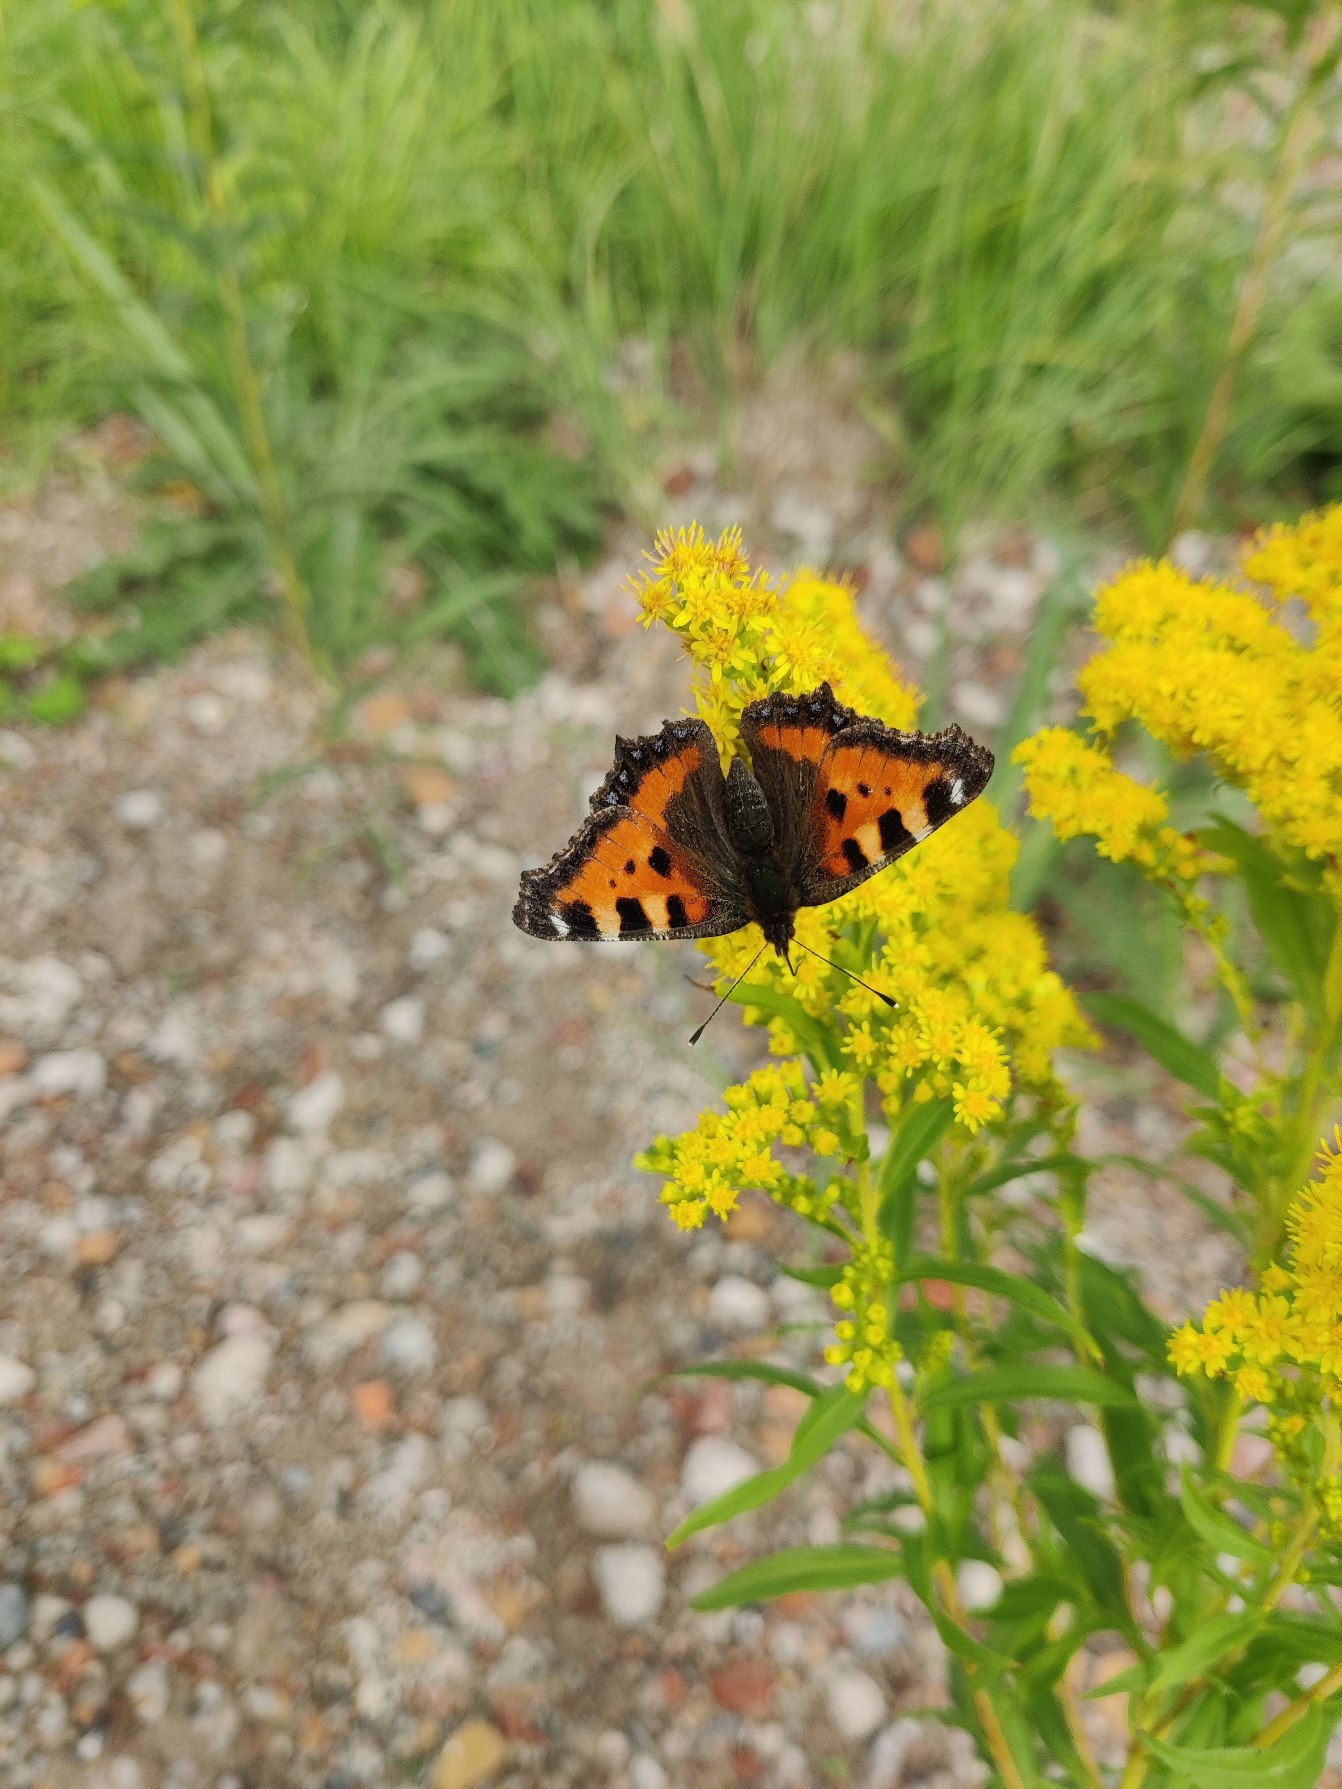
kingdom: Animalia
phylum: Arthropoda
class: Insecta
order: Lepidoptera
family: Nymphalidae
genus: Aglais
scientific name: Aglais urticae
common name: Nældens takvinge
